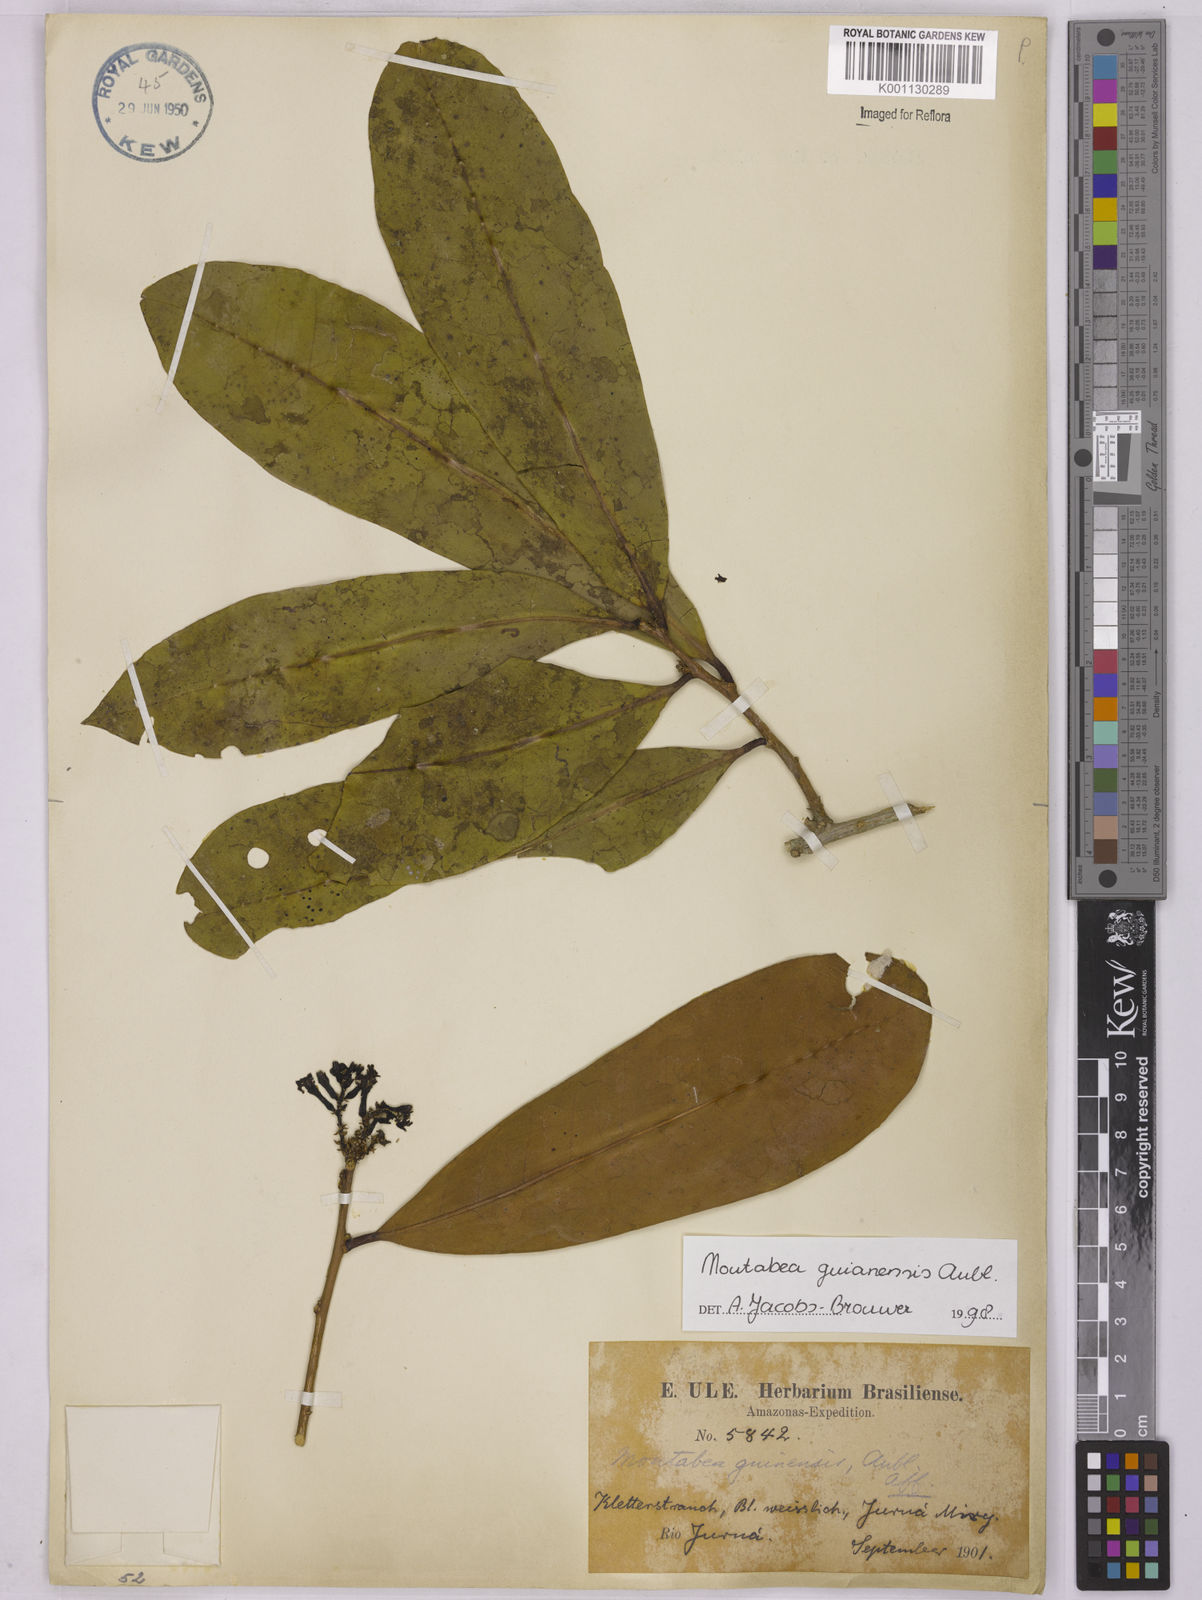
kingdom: Plantae
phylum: Tracheophyta
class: Magnoliopsida
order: Fabales
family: Polygalaceae
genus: Moutabea
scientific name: Moutabea guianensis
